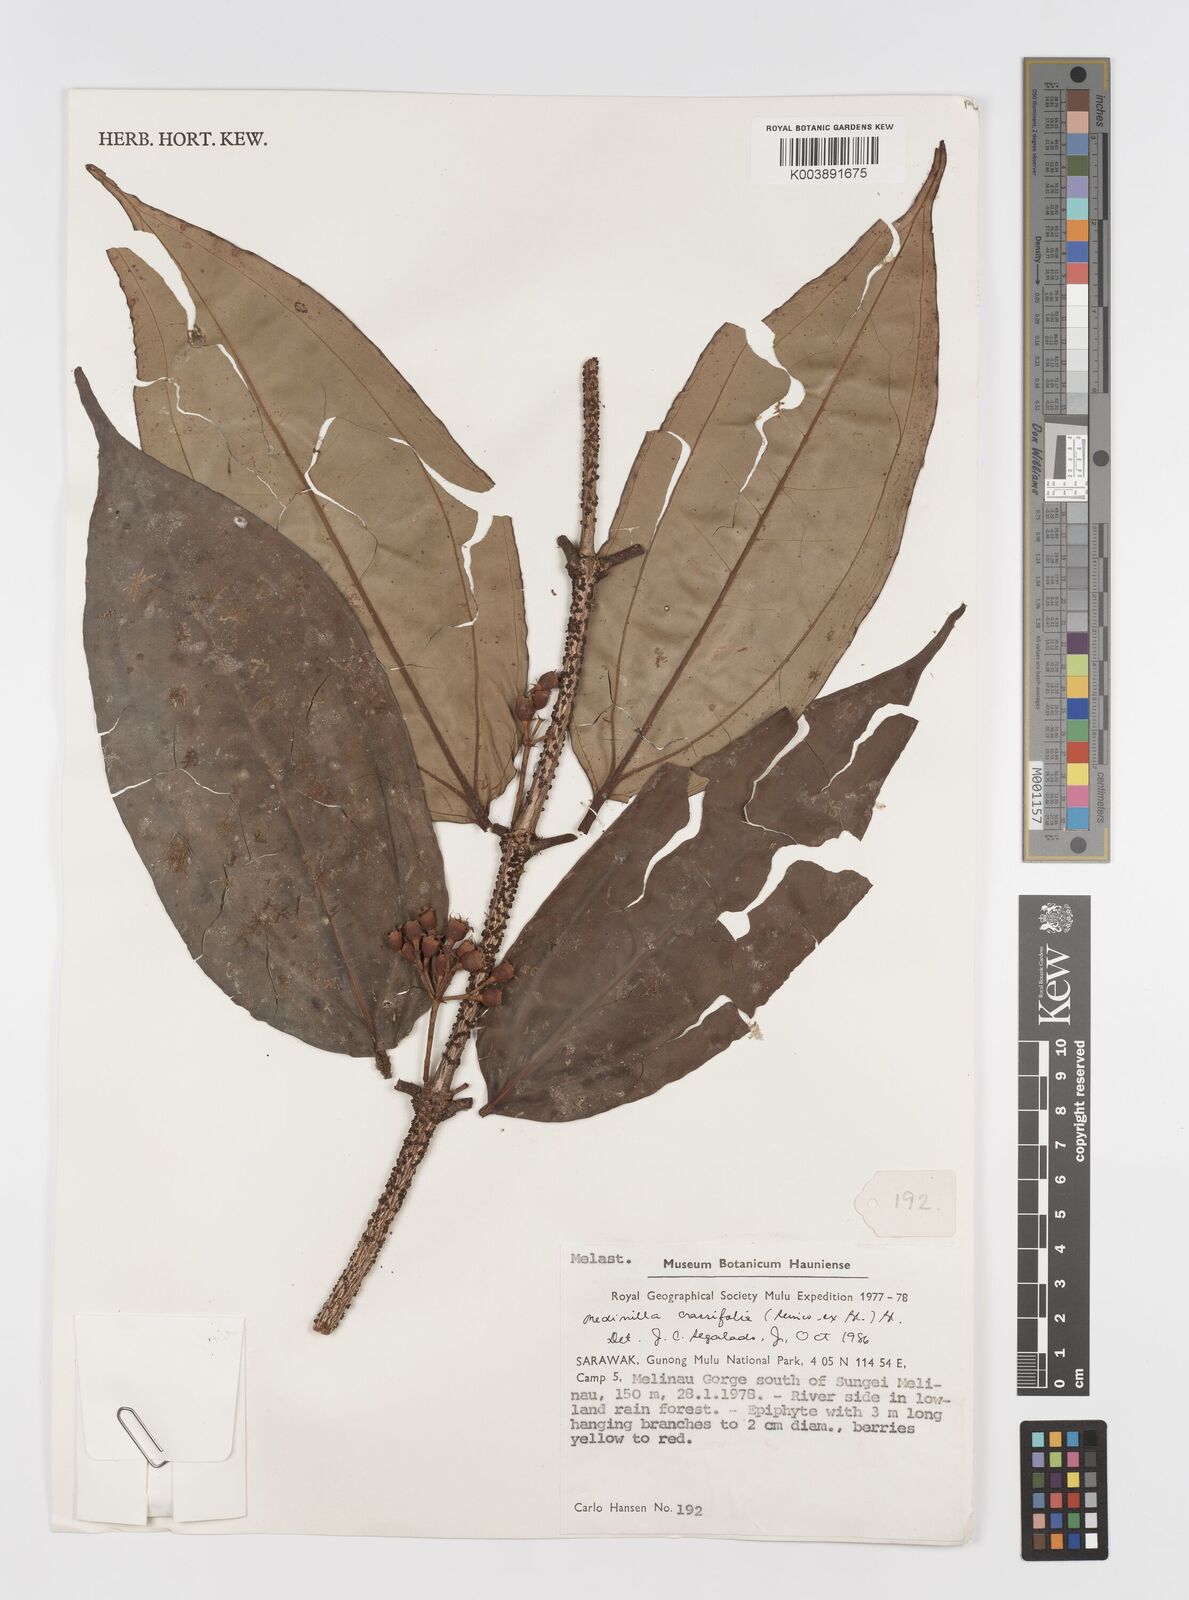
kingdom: Plantae
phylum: Tracheophyta
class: Magnoliopsida
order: Myrtales
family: Melastomataceae
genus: Medinilla
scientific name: Medinilla crassifolia
